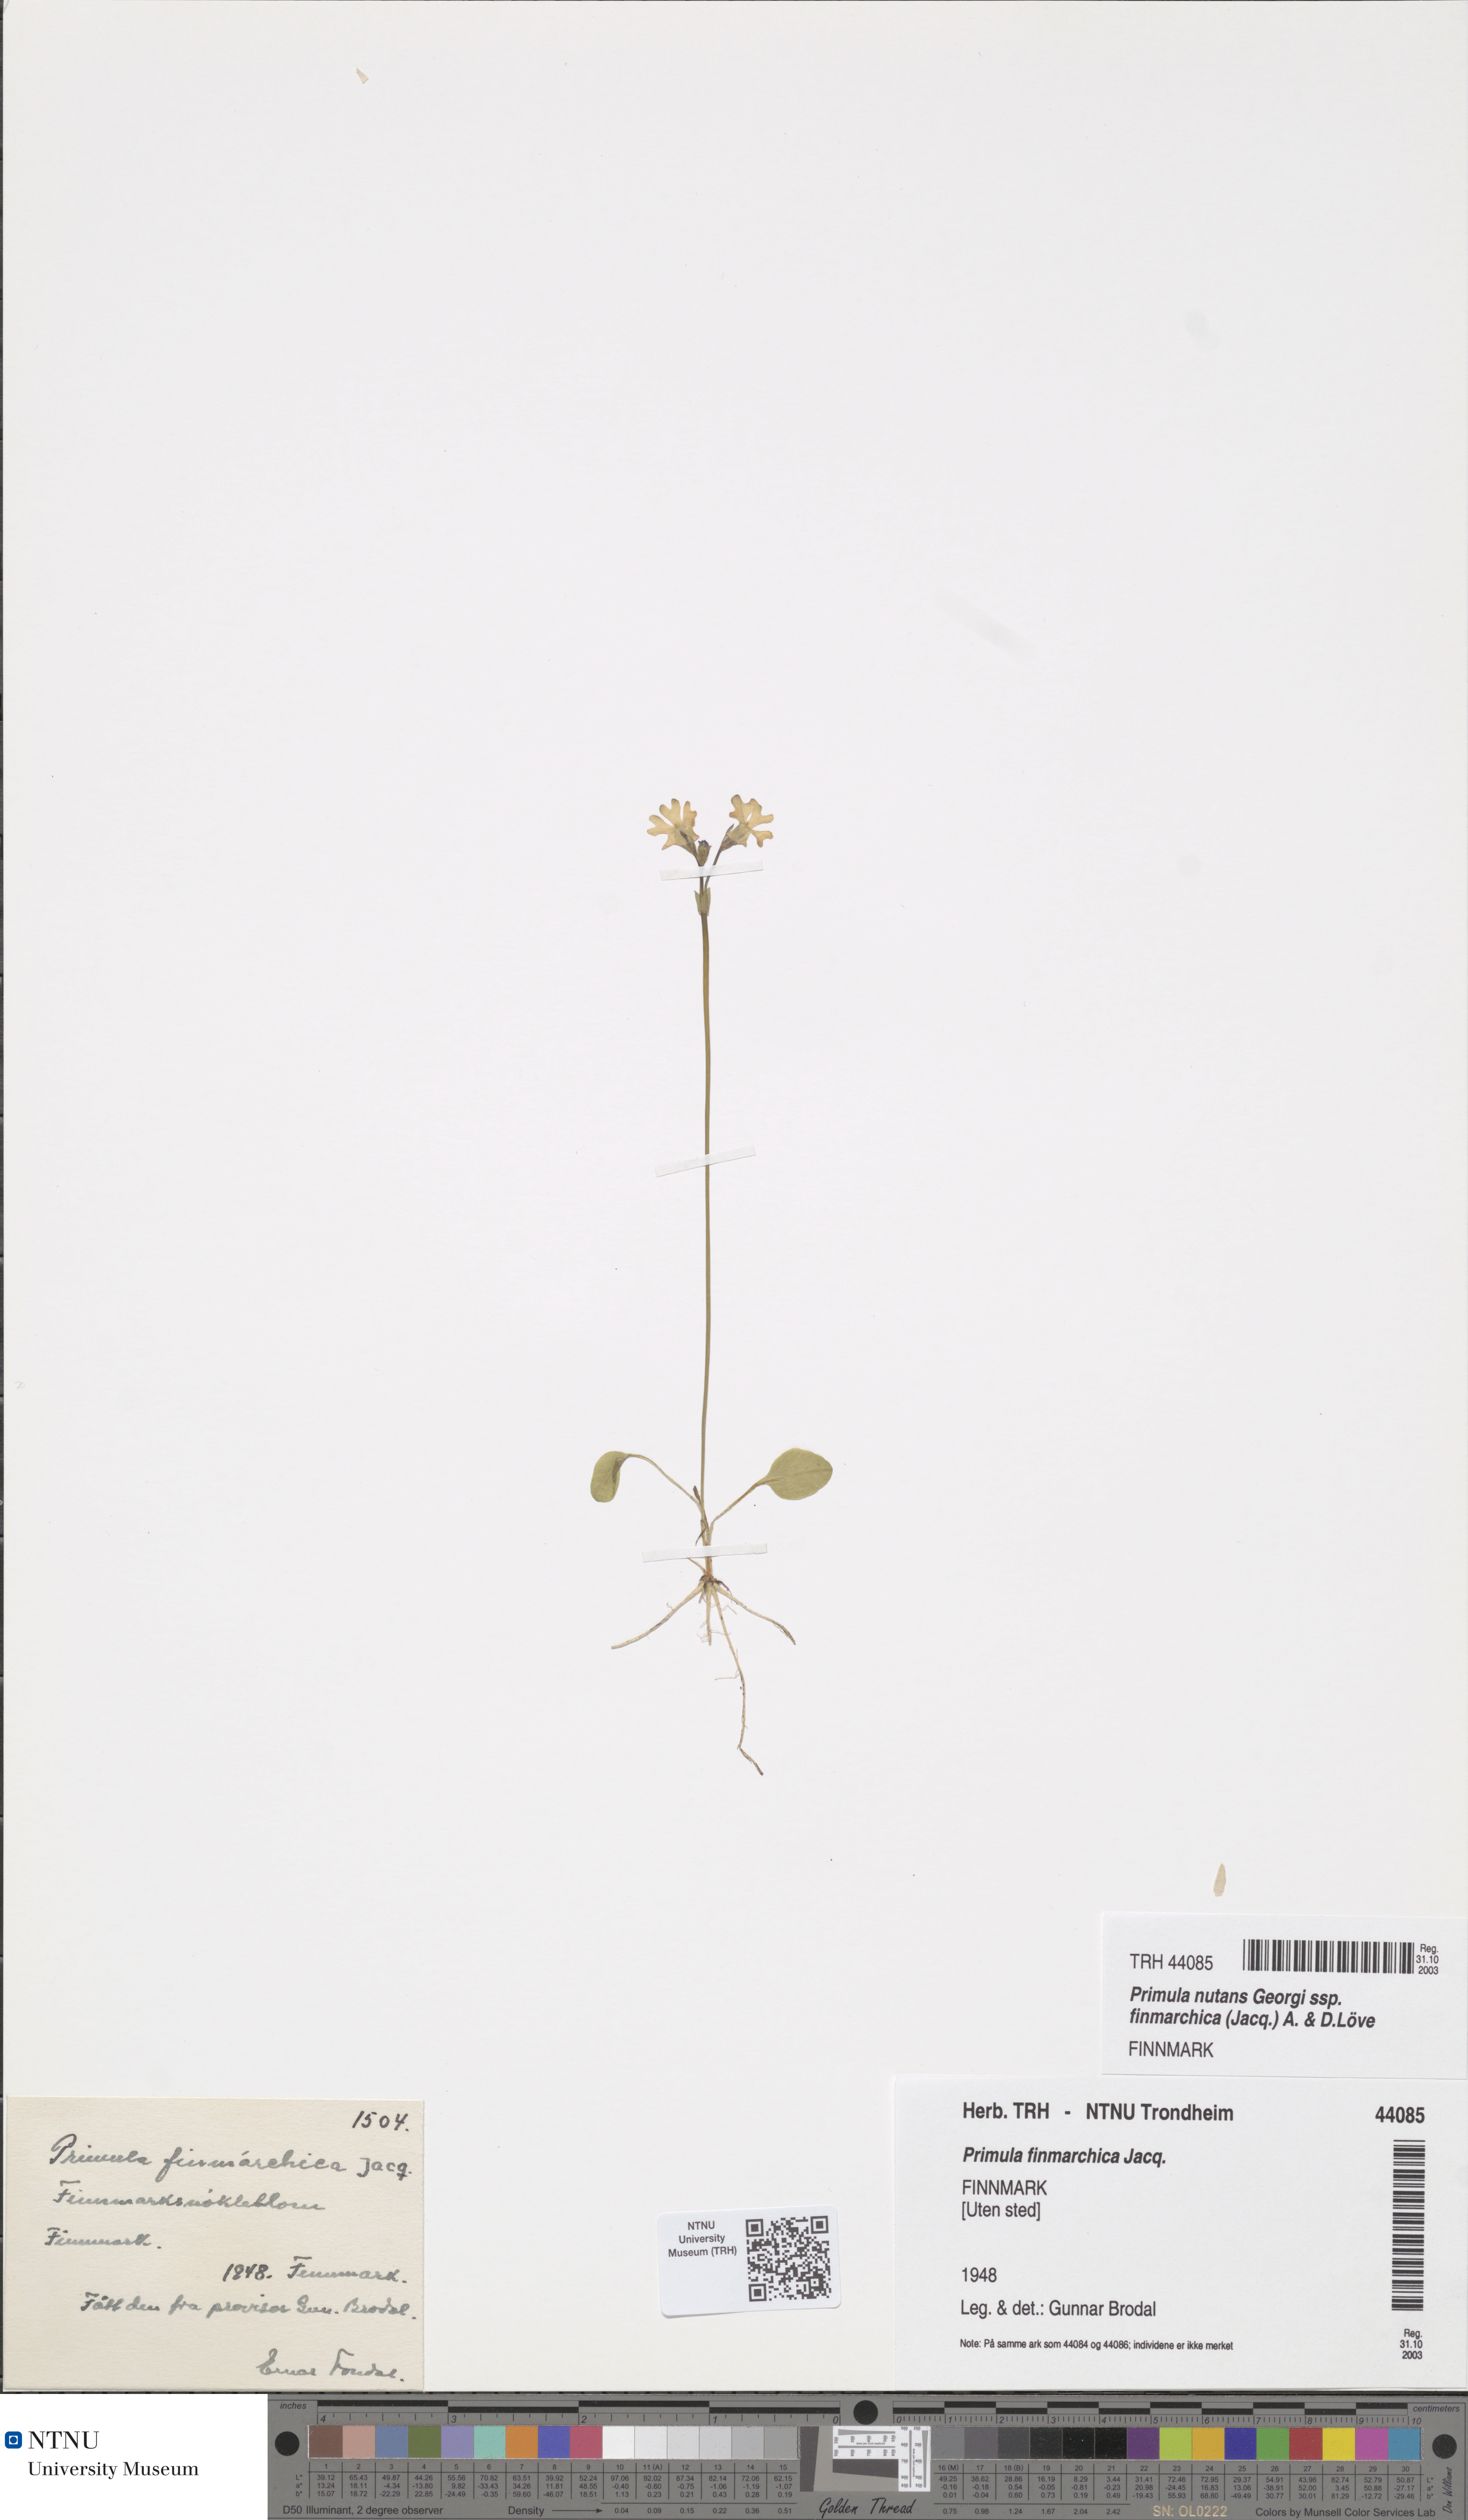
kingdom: Plantae
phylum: Tracheophyta
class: Magnoliopsida
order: Ericales
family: Primulaceae
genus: Primula
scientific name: Primula nutans
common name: Siberian primrose
